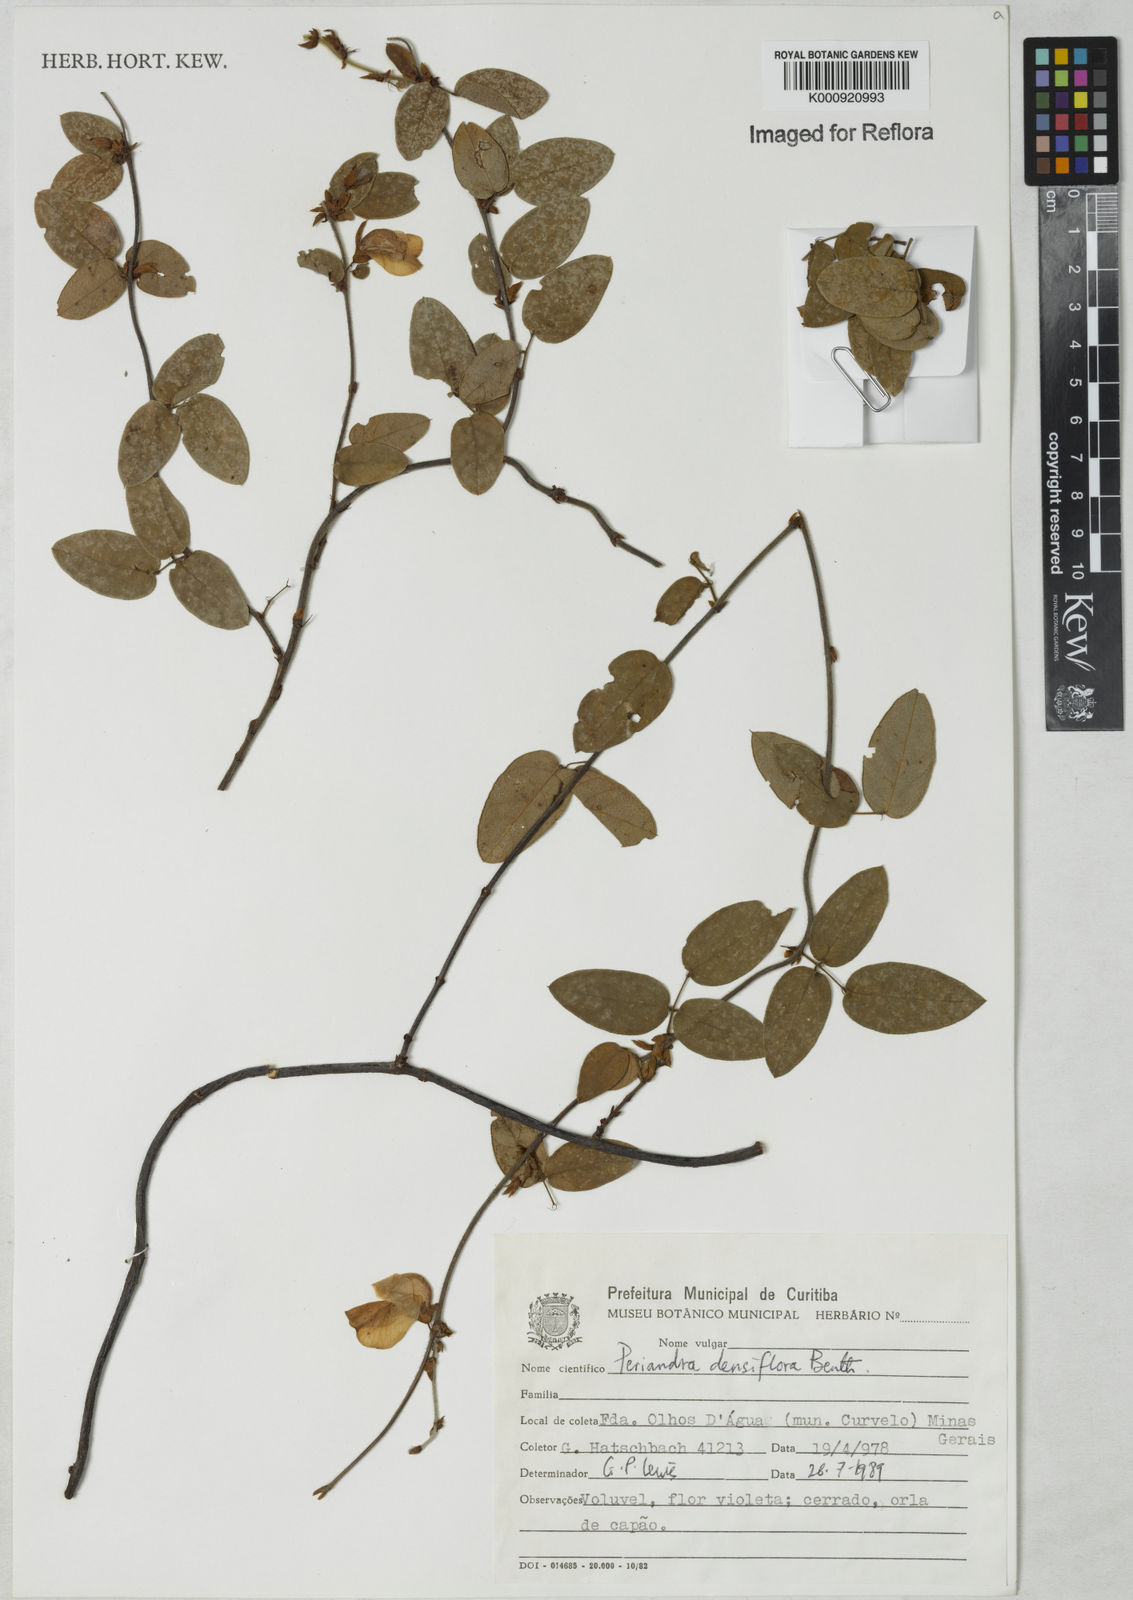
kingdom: Plantae
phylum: Tracheophyta
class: Magnoliopsida
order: Fabales
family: Fabaceae
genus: Periandra
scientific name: Periandra densiflora
